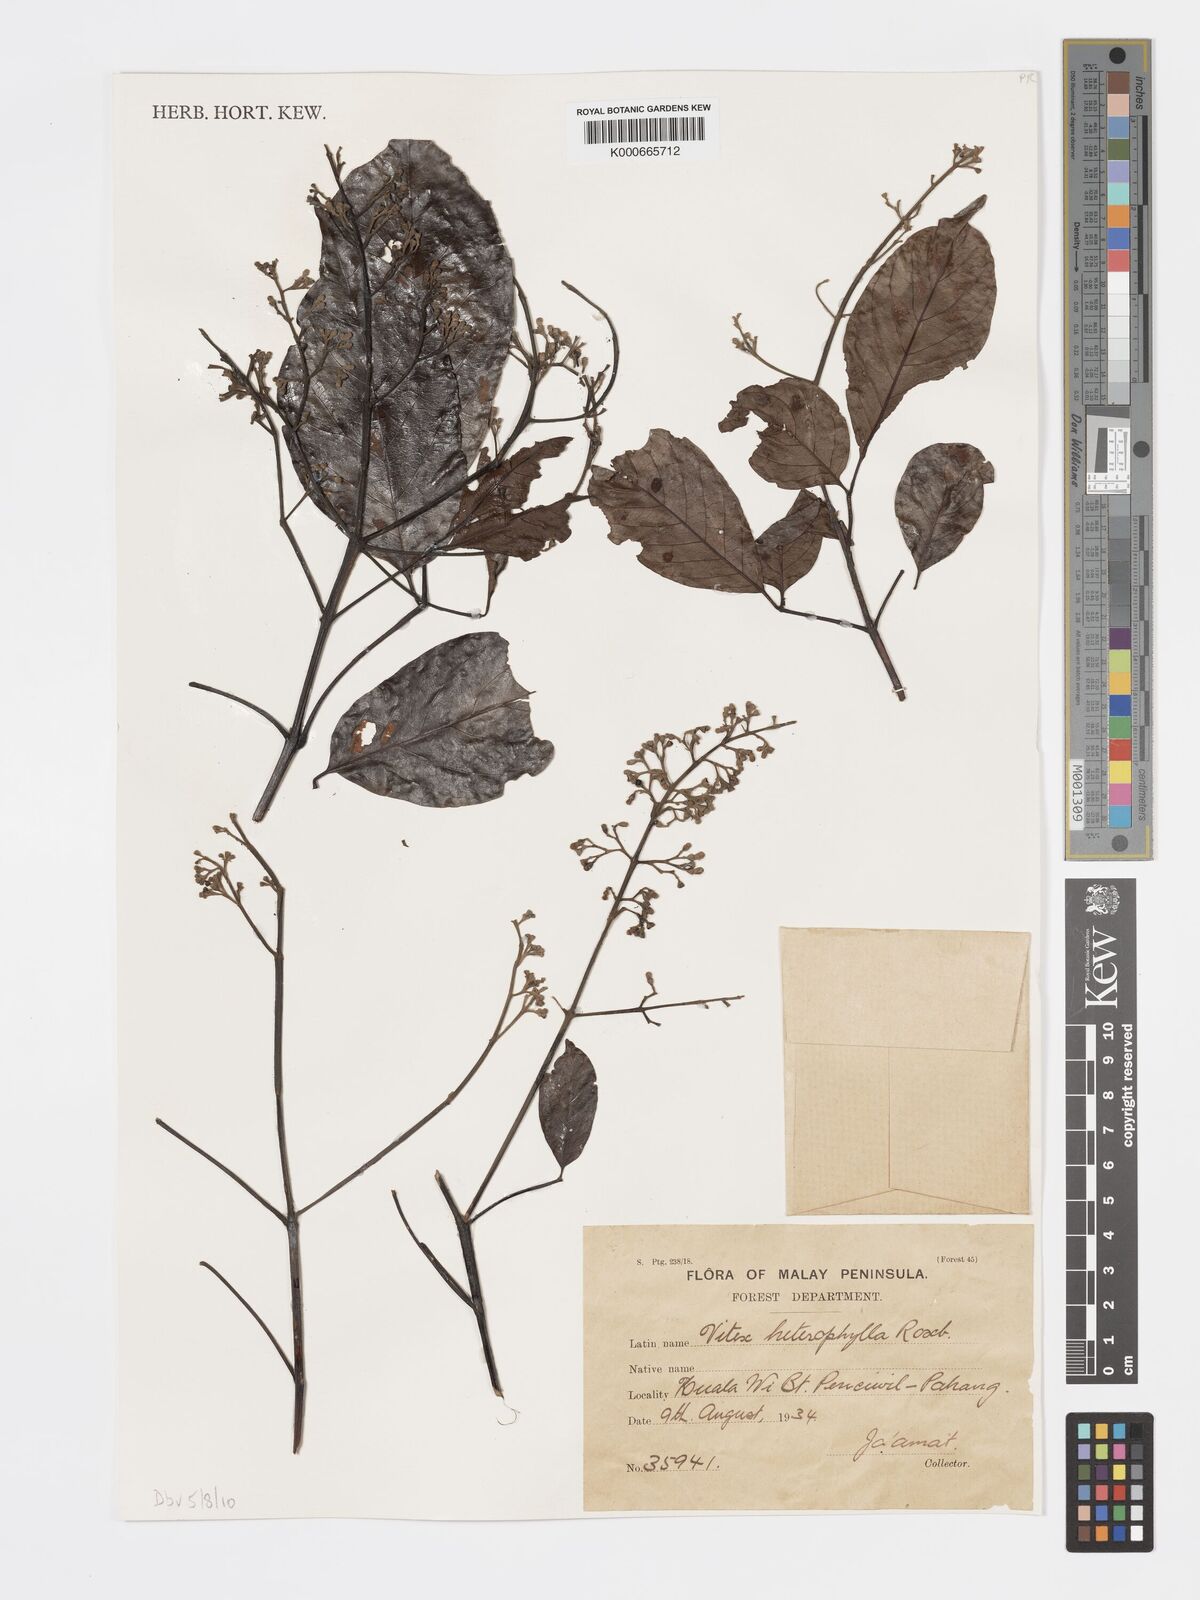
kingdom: Plantae
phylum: Tracheophyta
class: Magnoliopsida
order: Lamiales
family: Lamiaceae
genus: Vitex
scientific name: Vitex quinata
